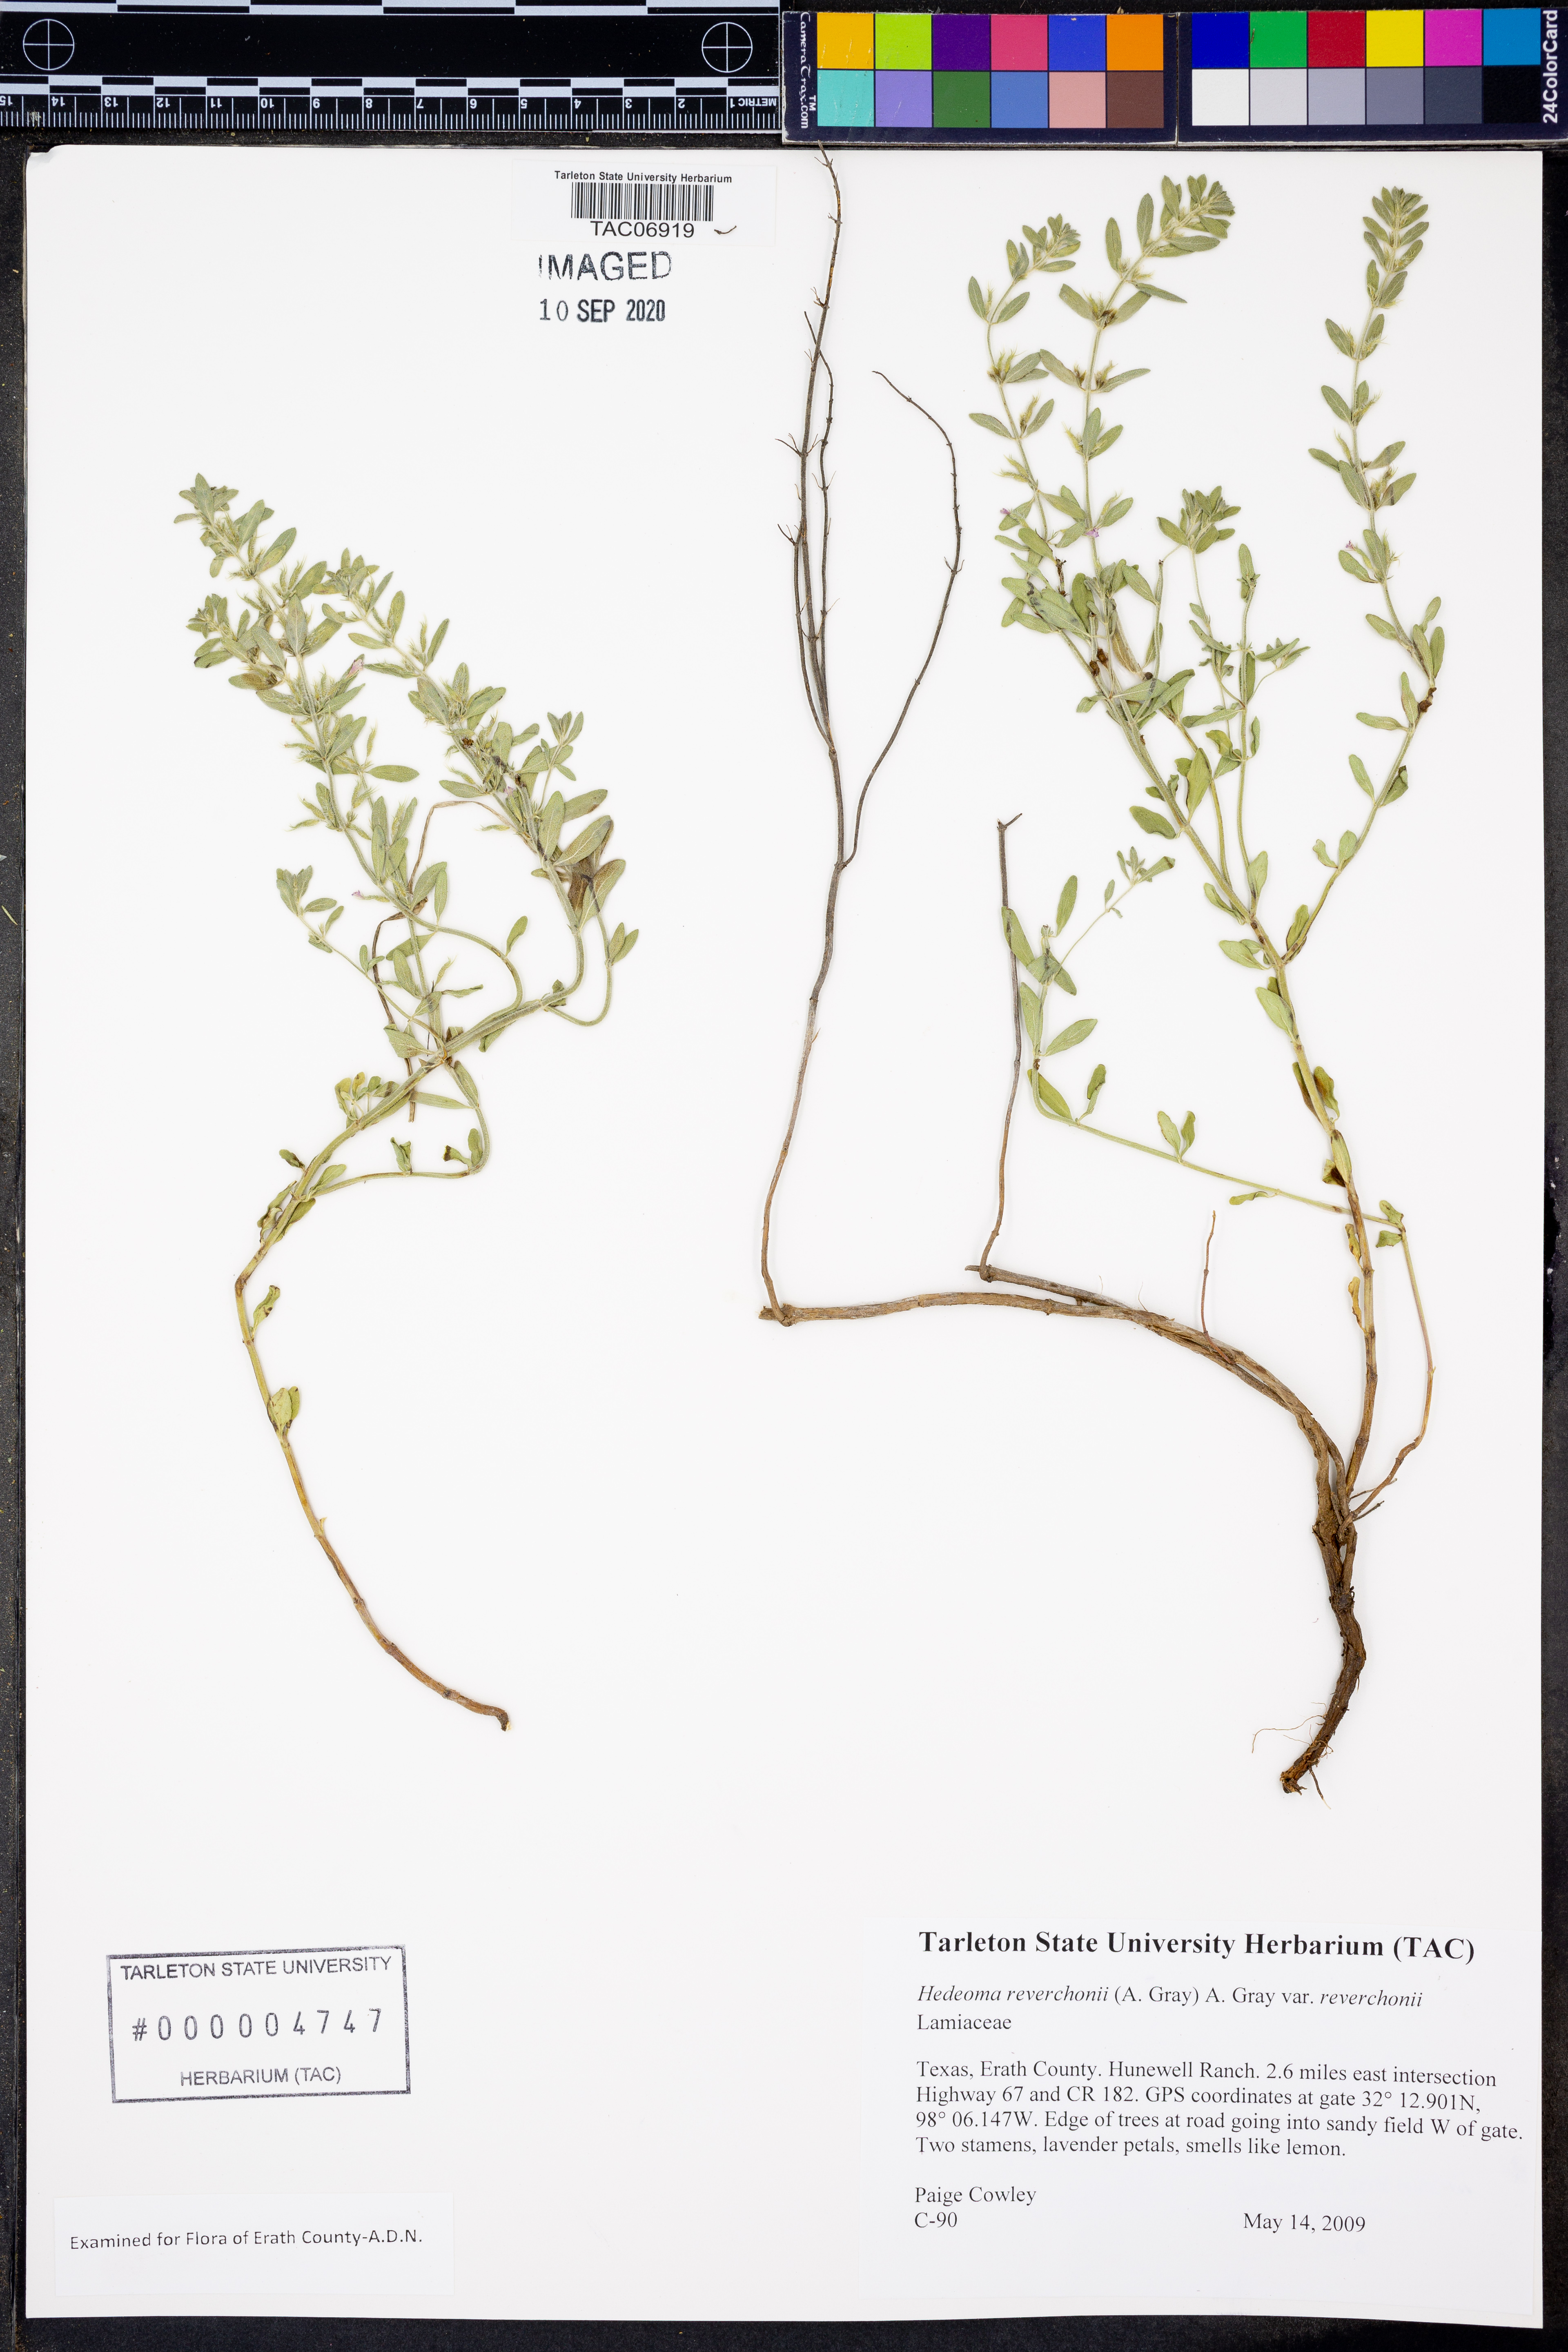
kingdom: Plantae
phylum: Tracheophyta
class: Magnoliopsida
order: Lamiales
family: Lamiaceae
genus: Hedeoma
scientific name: Hedeoma reverchonii
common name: Reverchon's false penny-royal
